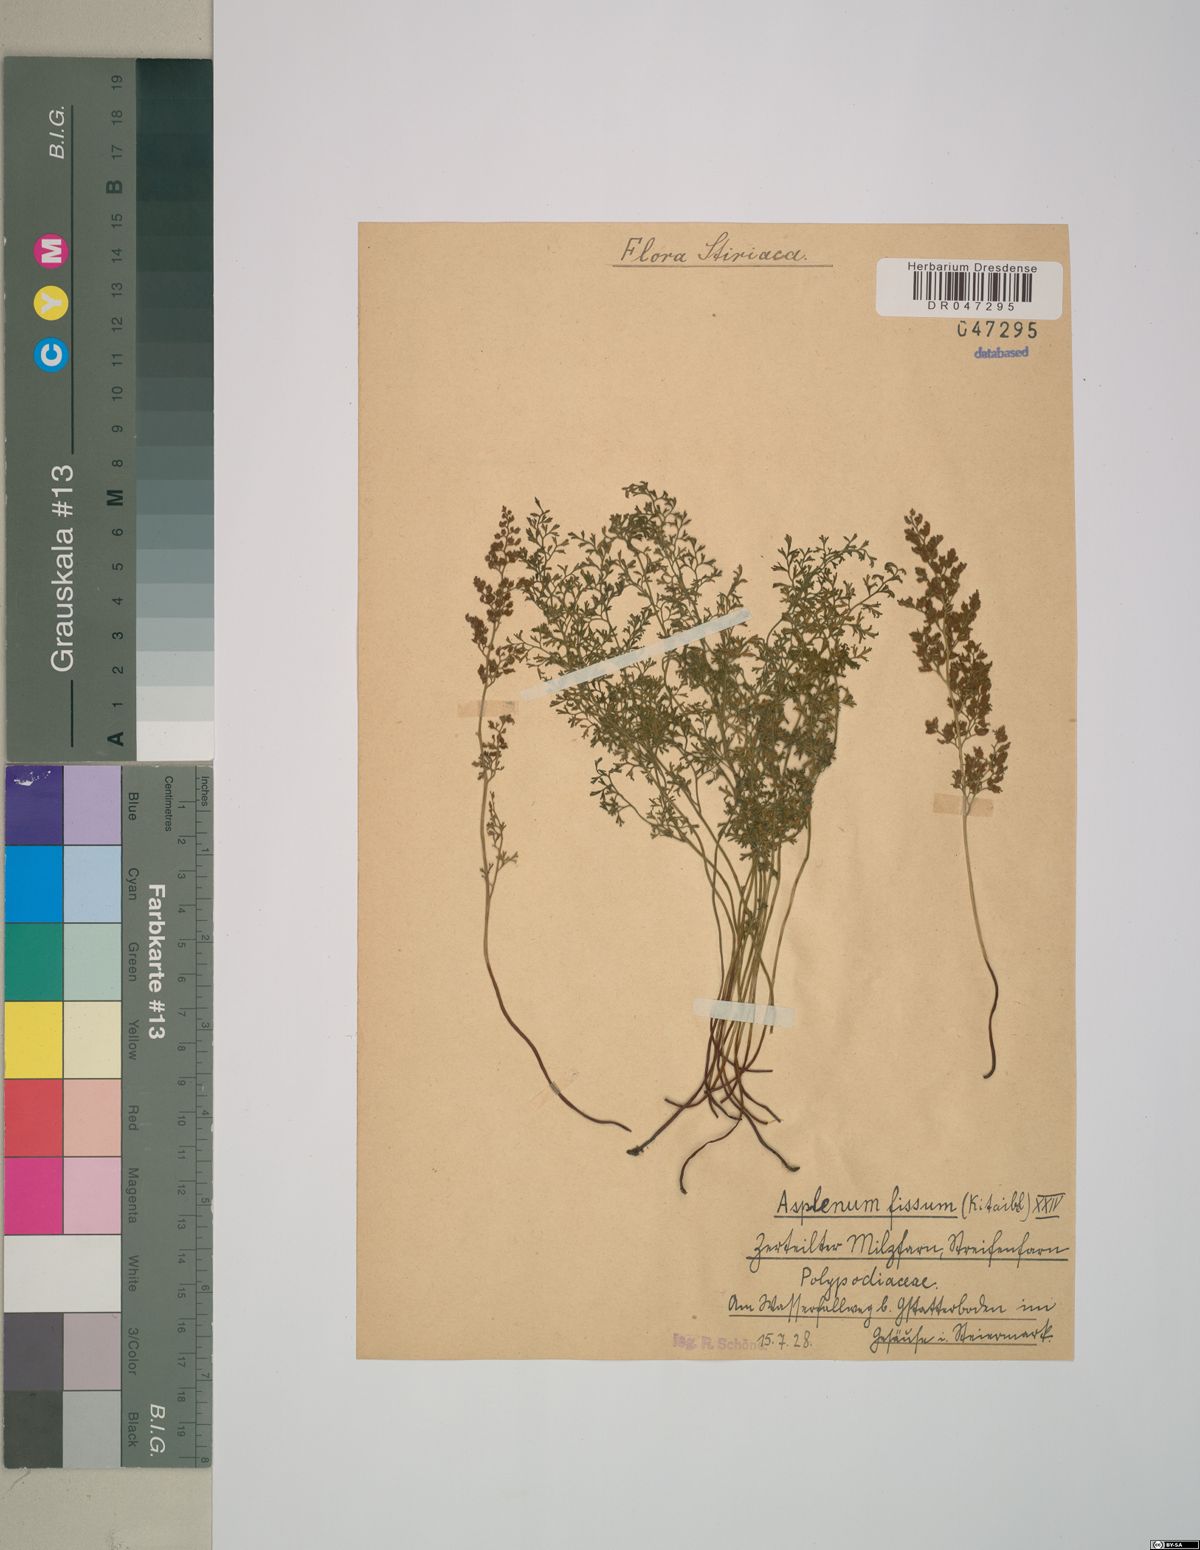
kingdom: Plantae
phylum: Tracheophyta
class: Polypodiopsida
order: Polypodiales
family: Aspleniaceae
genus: Asplenium
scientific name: Asplenium fissum
